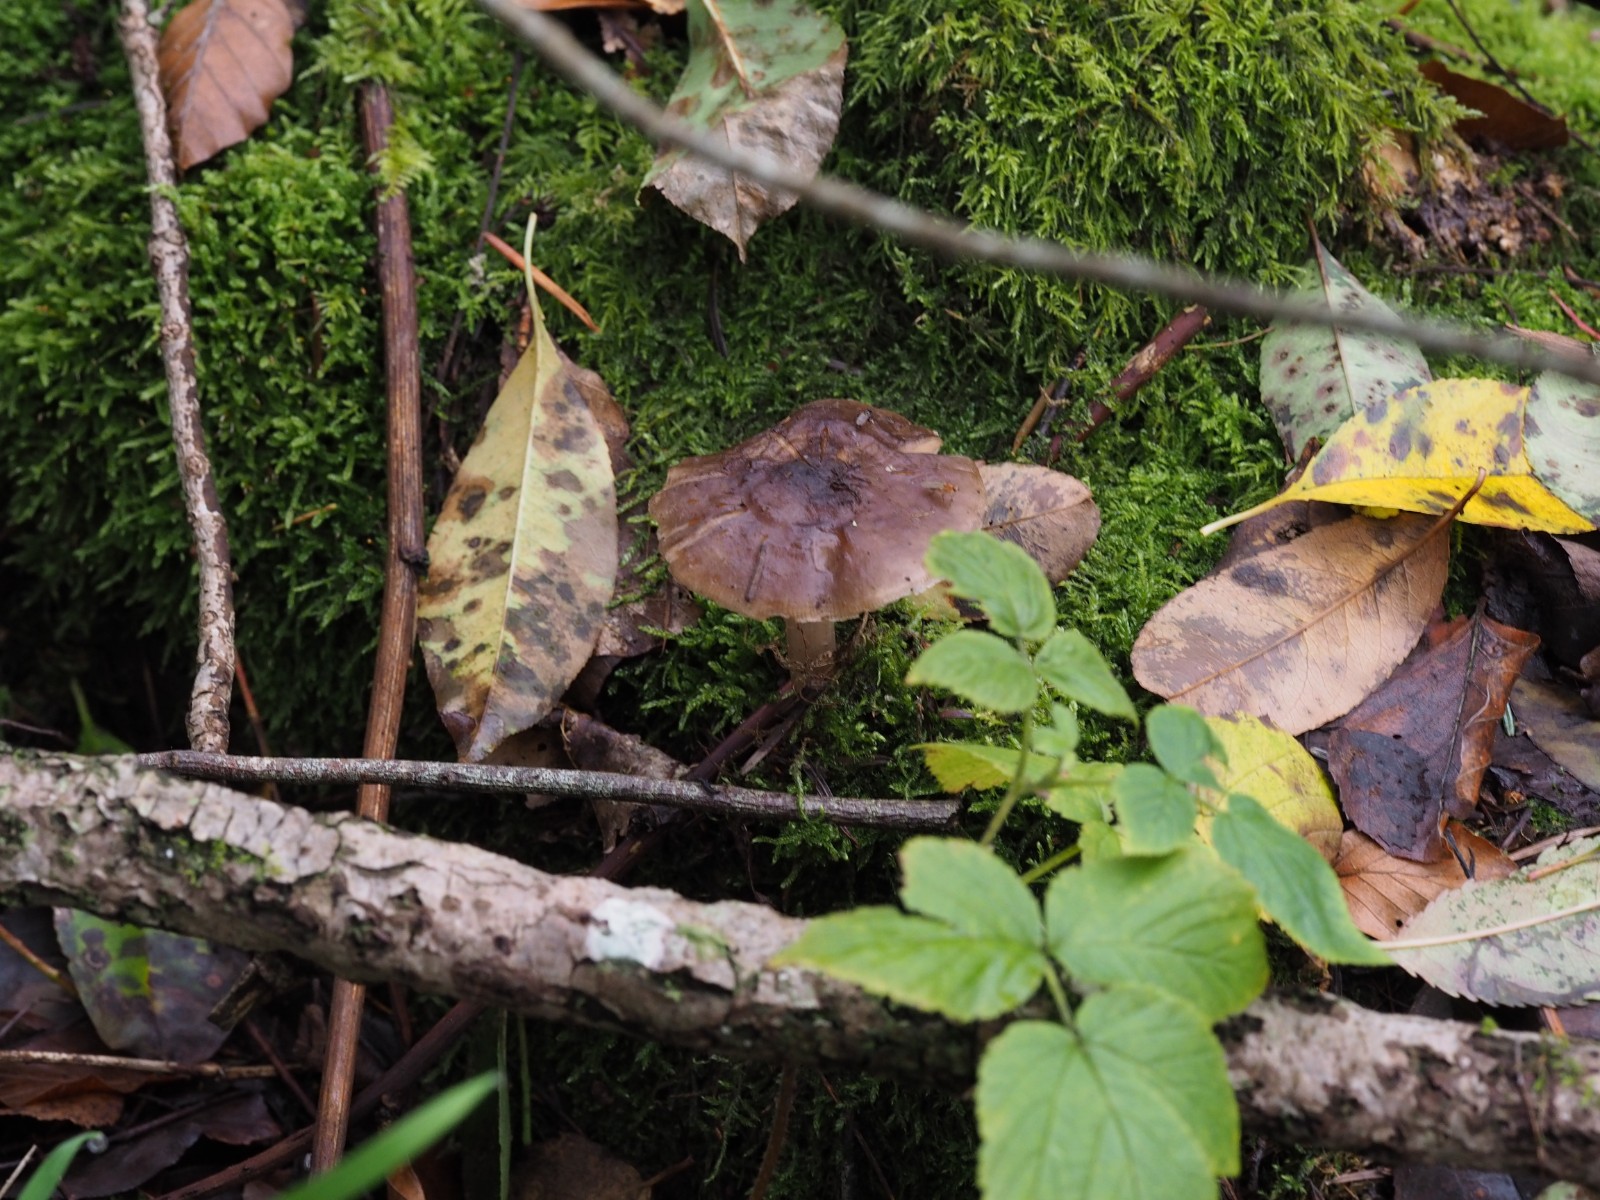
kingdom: Fungi
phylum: Basidiomycota
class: Agaricomycetes
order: Agaricales
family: Pluteaceae
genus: Pluteus
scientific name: Pluteus
